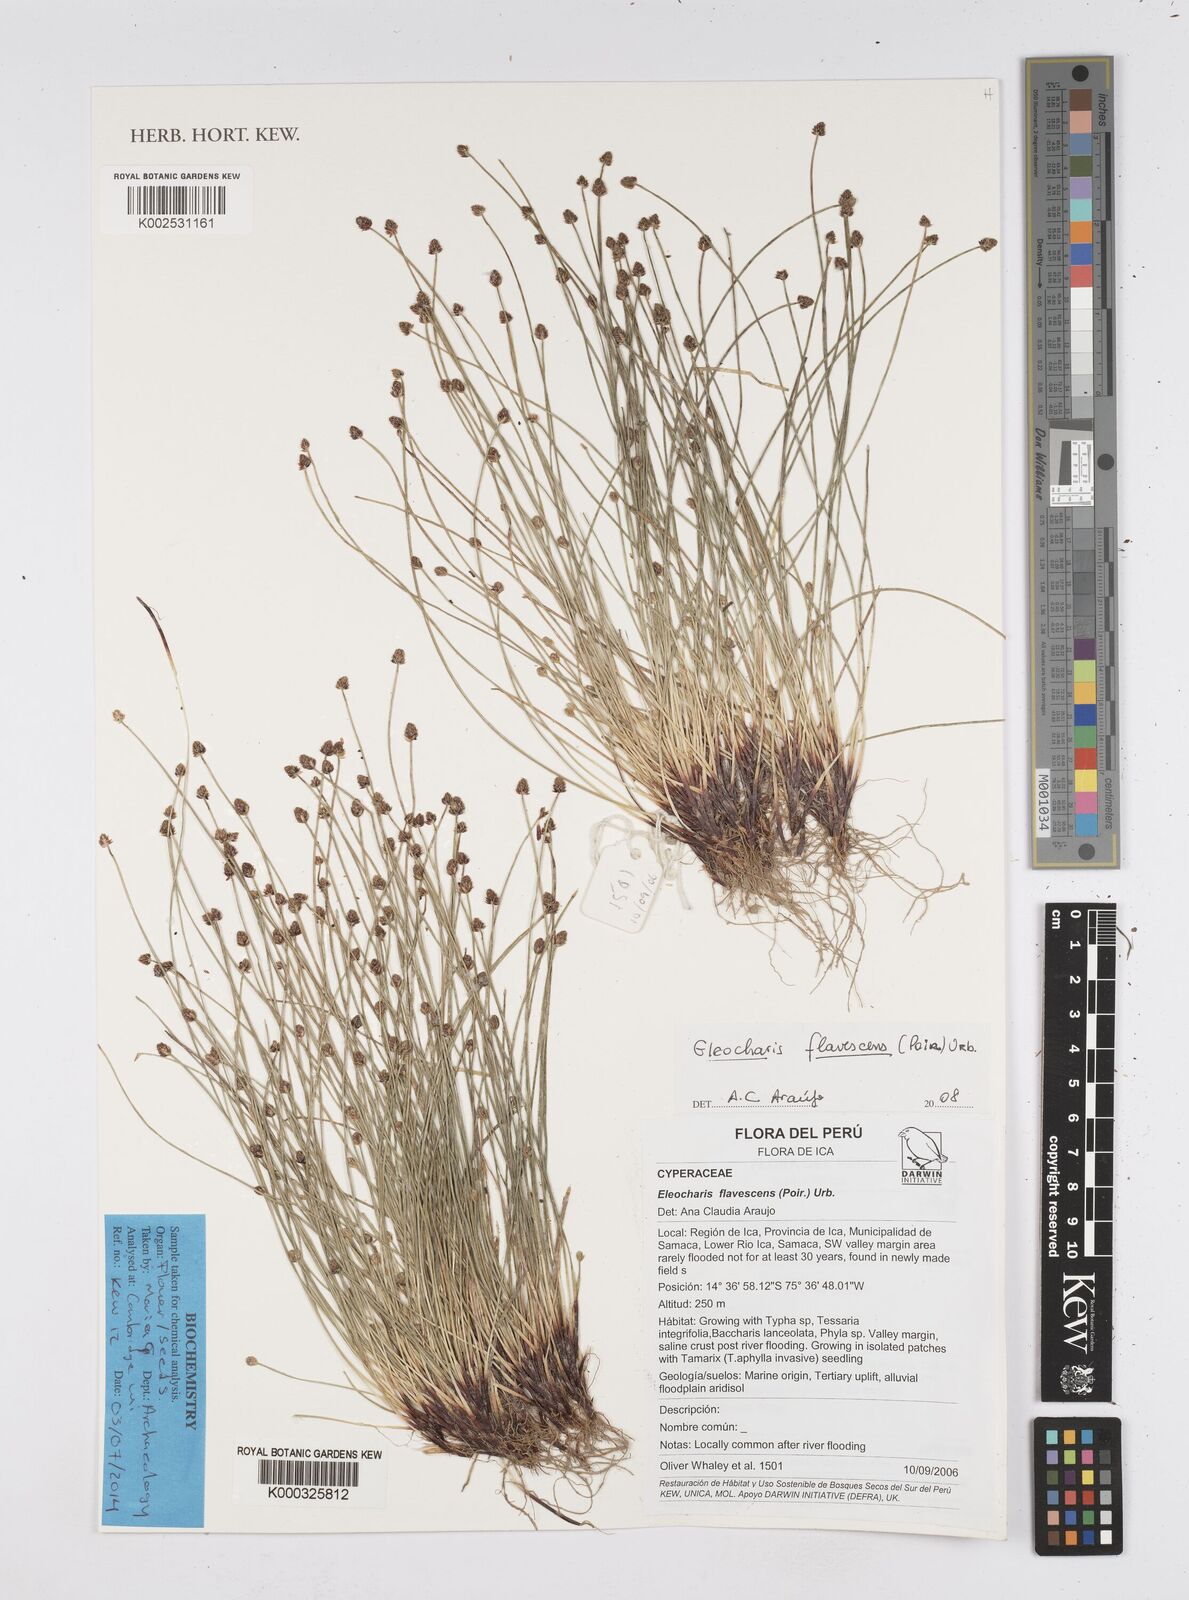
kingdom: Plantae
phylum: Tracheophyta
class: Liliopsida
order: Poales
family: Cyperaceae
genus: Eleocharis
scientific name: Eleocharis flavescens
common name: Yellow spikerush
